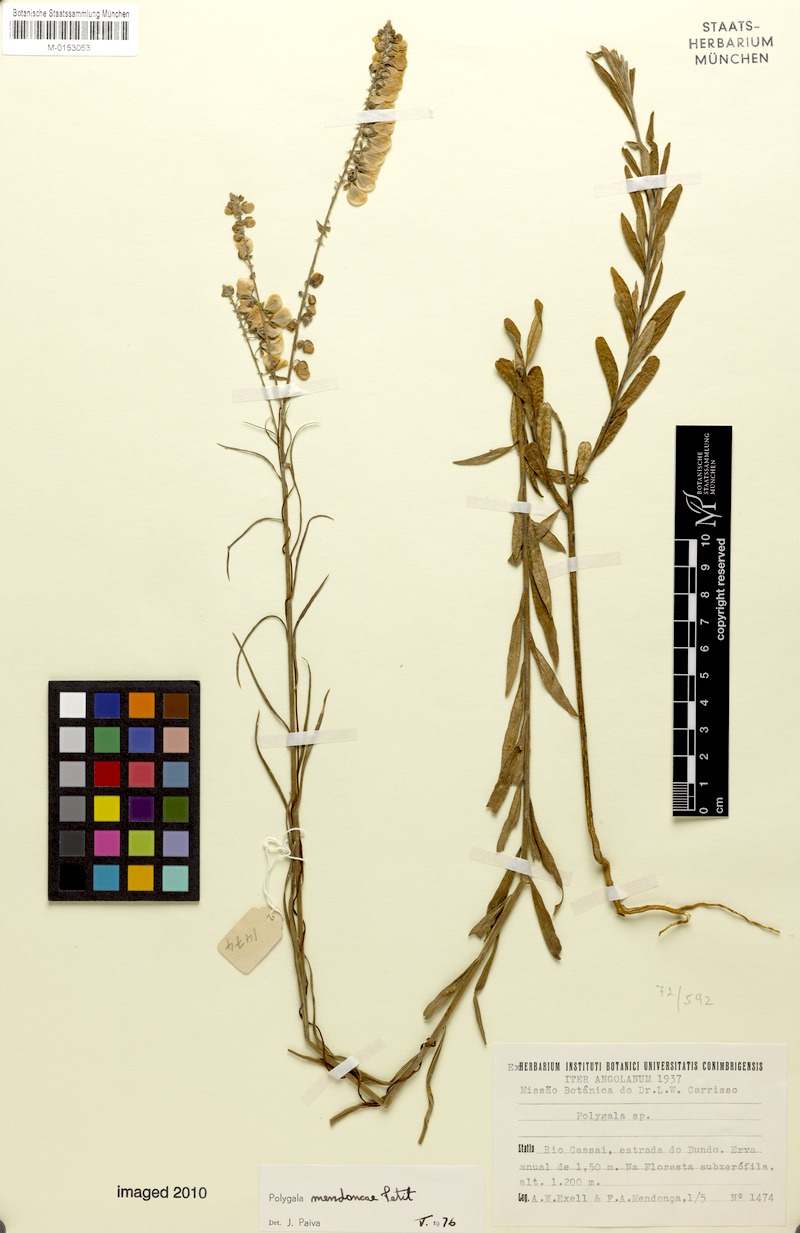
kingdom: Plantae
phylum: Tracheophyta
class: Magnoliopsida
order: Fabales
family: Polygalaceae
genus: Polygala
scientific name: Polygala mendoncae
